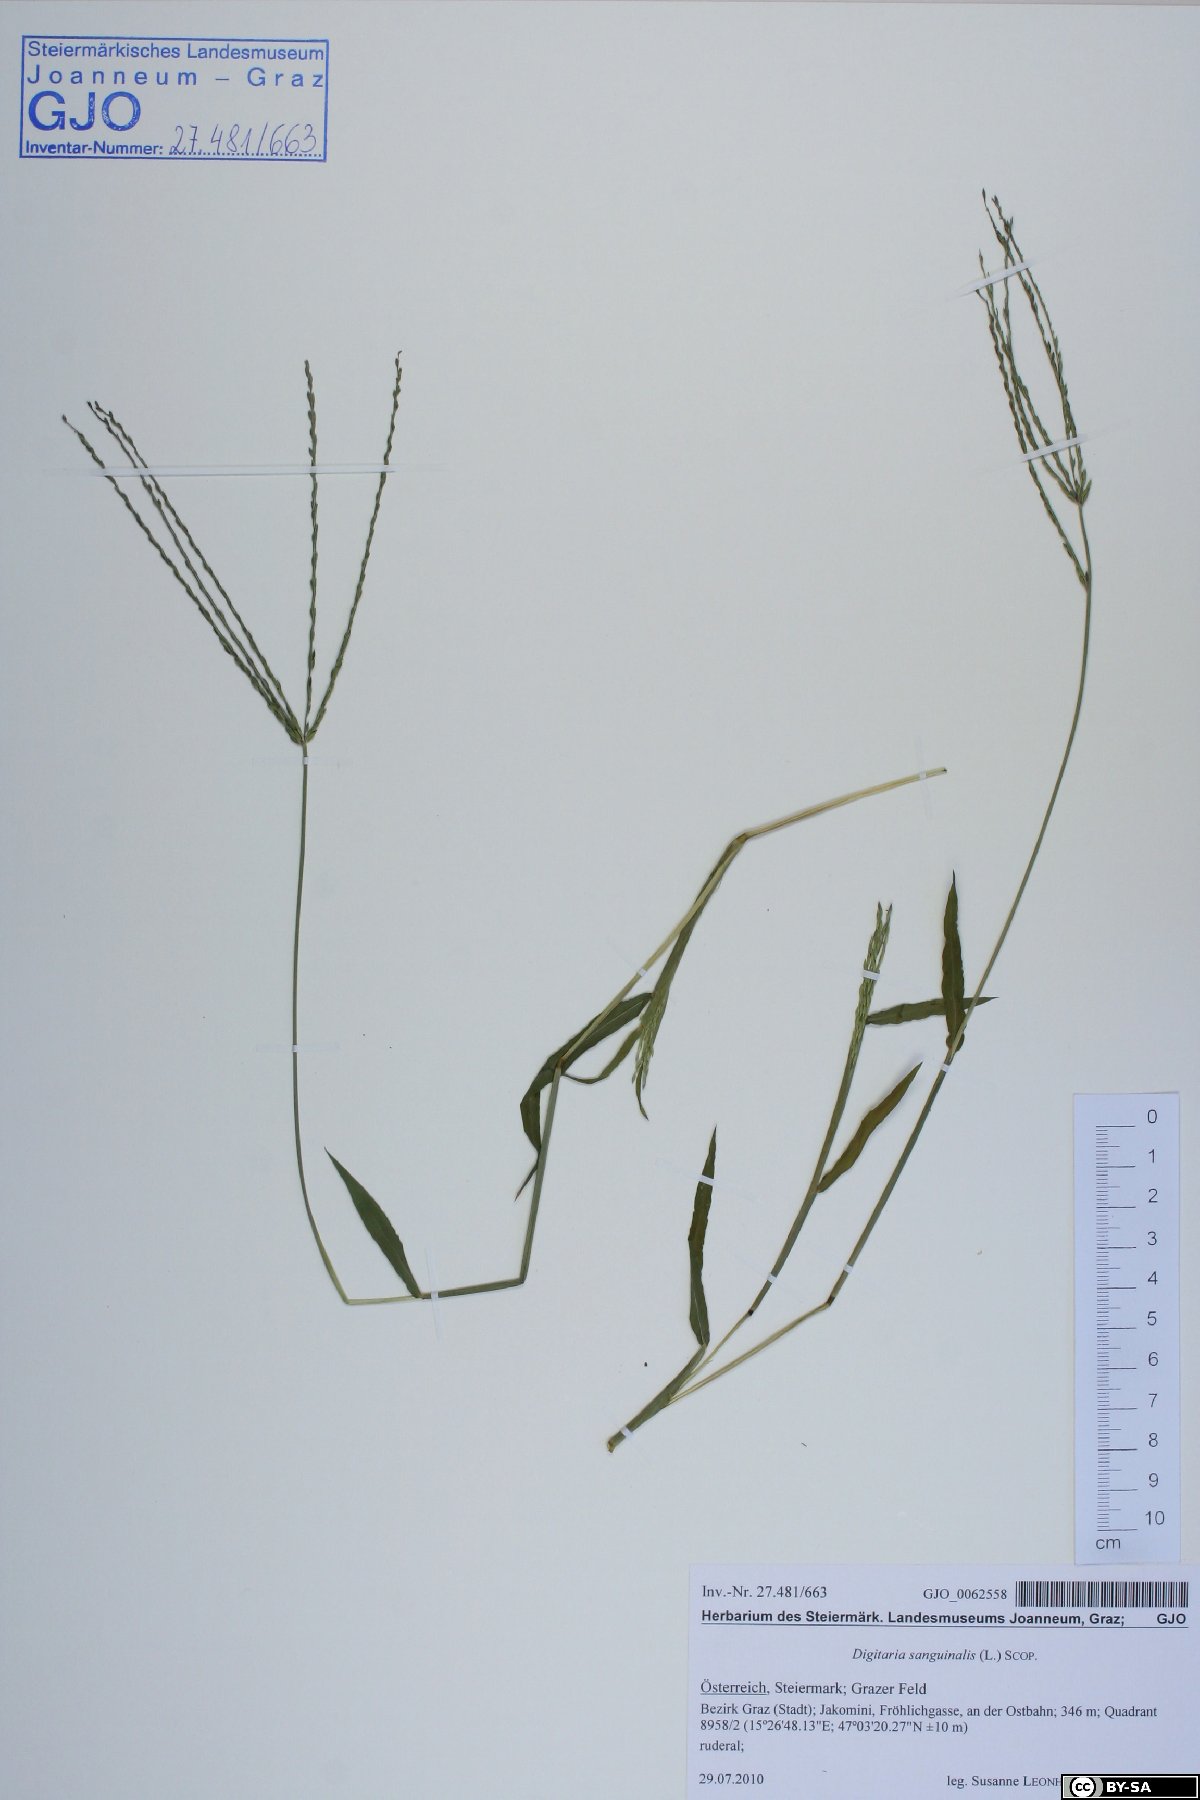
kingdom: Plantae
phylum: Tracheophyta
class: Liliopsida
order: Poales
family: Poaceae
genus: Digitaria
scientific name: Digitaria sanguinalis
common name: Hairy crabgrass
